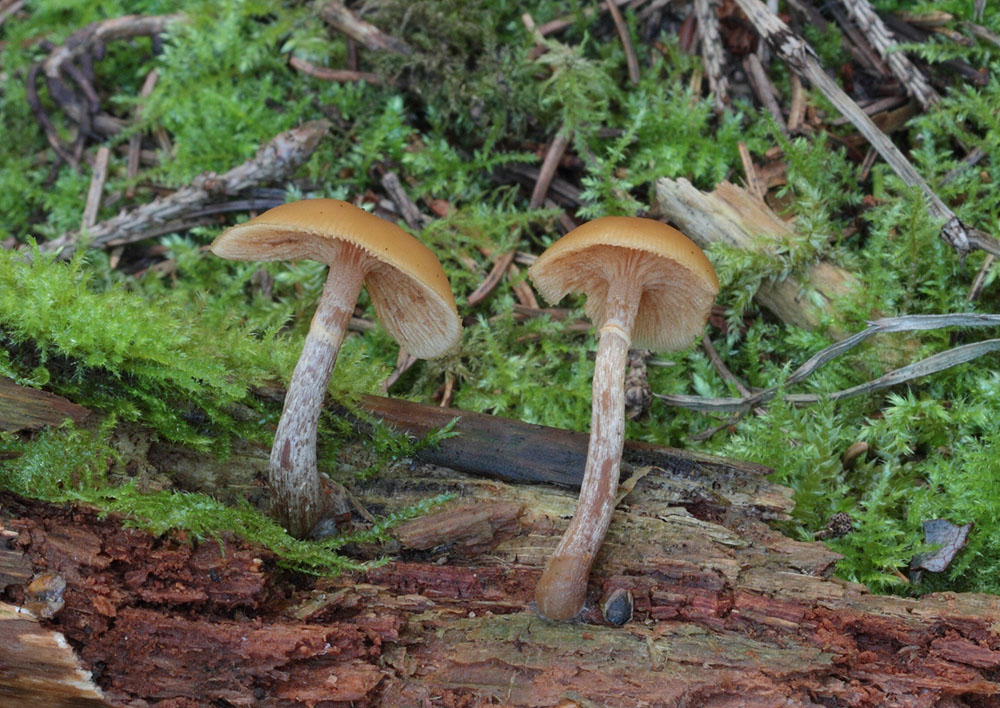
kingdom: Fungi
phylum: Basidiomycota
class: Agaricomycetes
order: Agaricales
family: Hymenogastraceae
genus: Galerina
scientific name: Galerina marginata
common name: randbæltet hjelmhat
